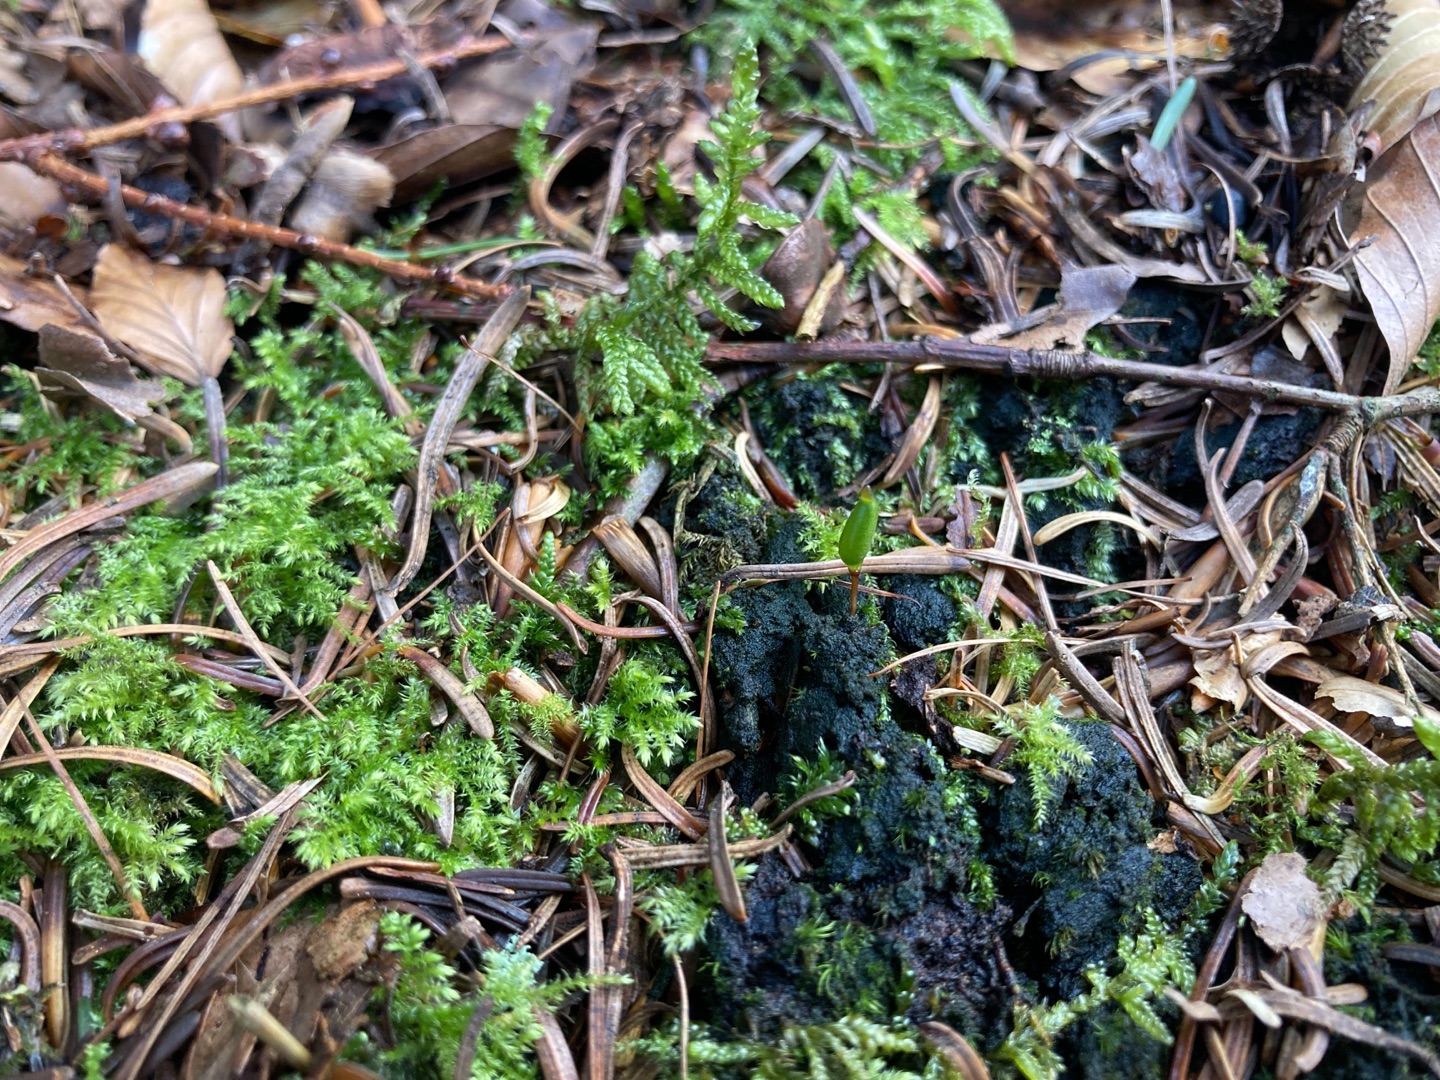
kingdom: Plantae
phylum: Bryophyta
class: Bryopsida
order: Buxbaumiales
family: Buxbaumiaceae
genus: Buxbaumia
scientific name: Buxbaumia viridis
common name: Grøn buxbaumia
